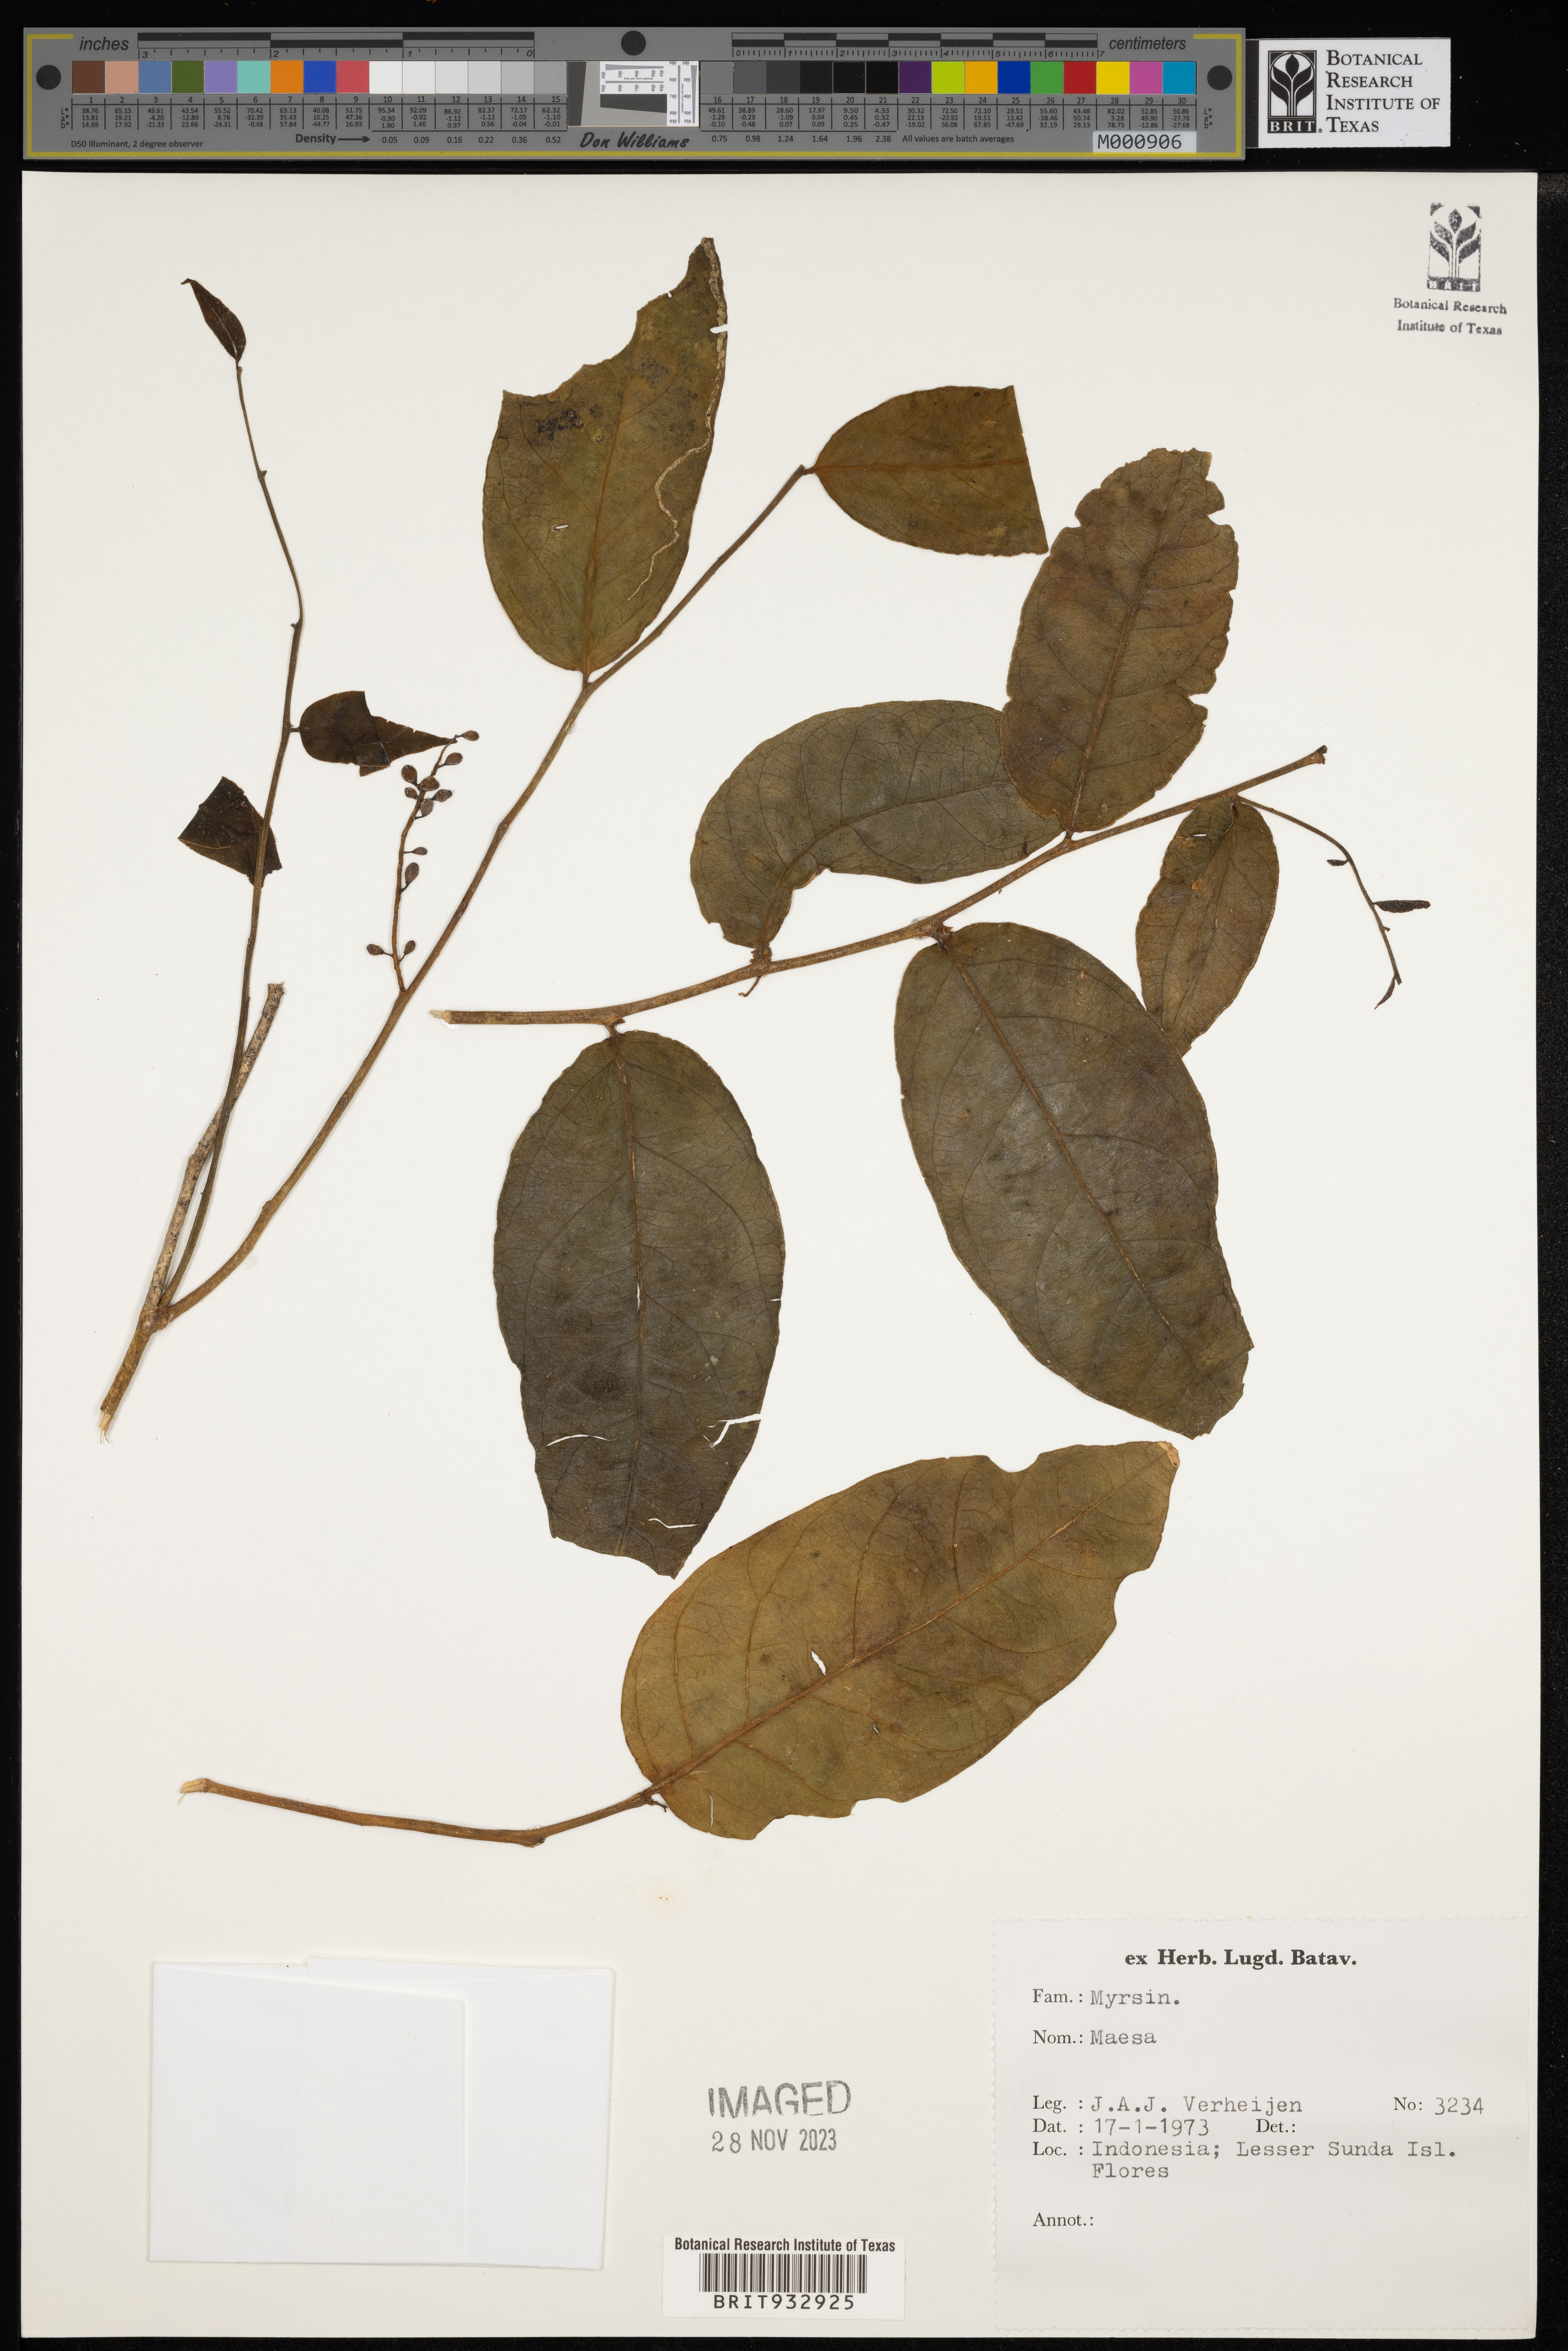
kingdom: Plantae
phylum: Tracheophyta
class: Magnoliopsida
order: Ericales
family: Primulaceae
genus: Maesa
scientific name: Maesa
